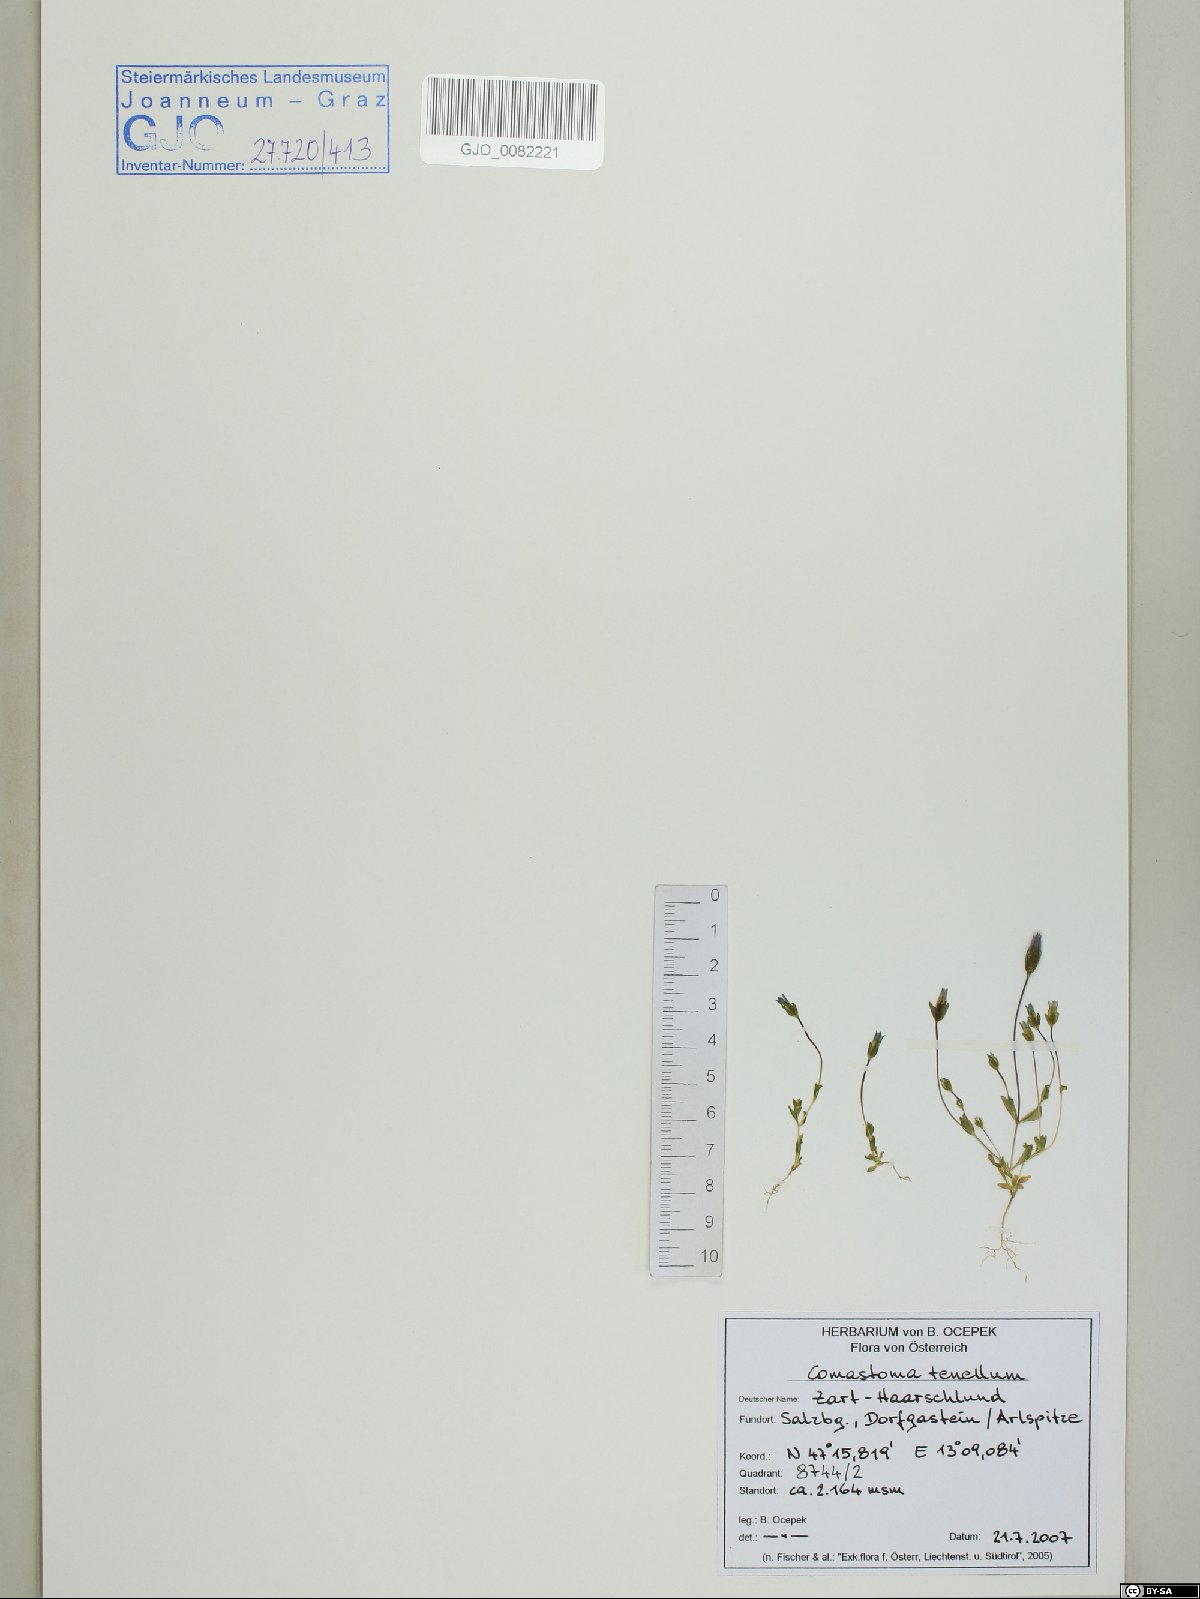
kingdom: Plantae
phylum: Tracheophyta
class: Magnoliopsida
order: Gentianales
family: Gentianaceae
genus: Comastoma
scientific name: Comastoma tenellum
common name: Dane's dwarf gentian
